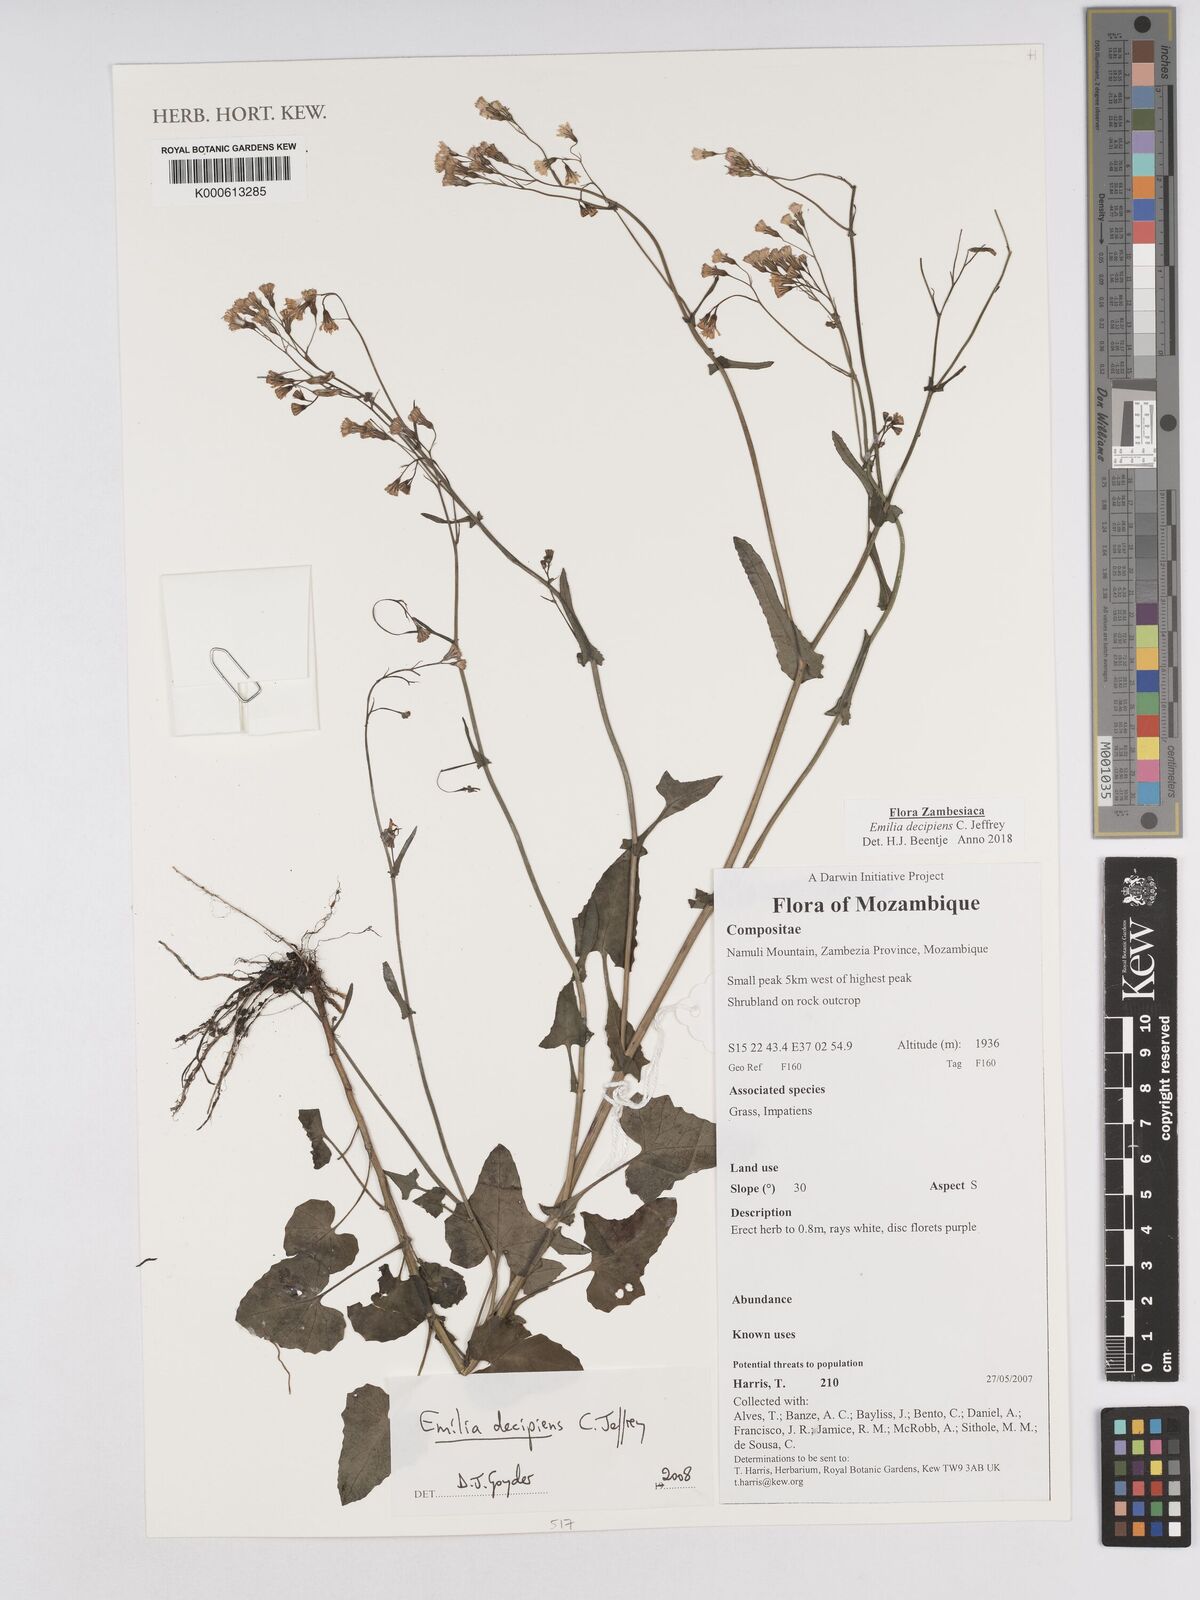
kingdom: Plantae
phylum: Tracheophyta
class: Magnoliopsida
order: Asterales
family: Asteraceae
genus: Emilia
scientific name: Emilia decipiens
